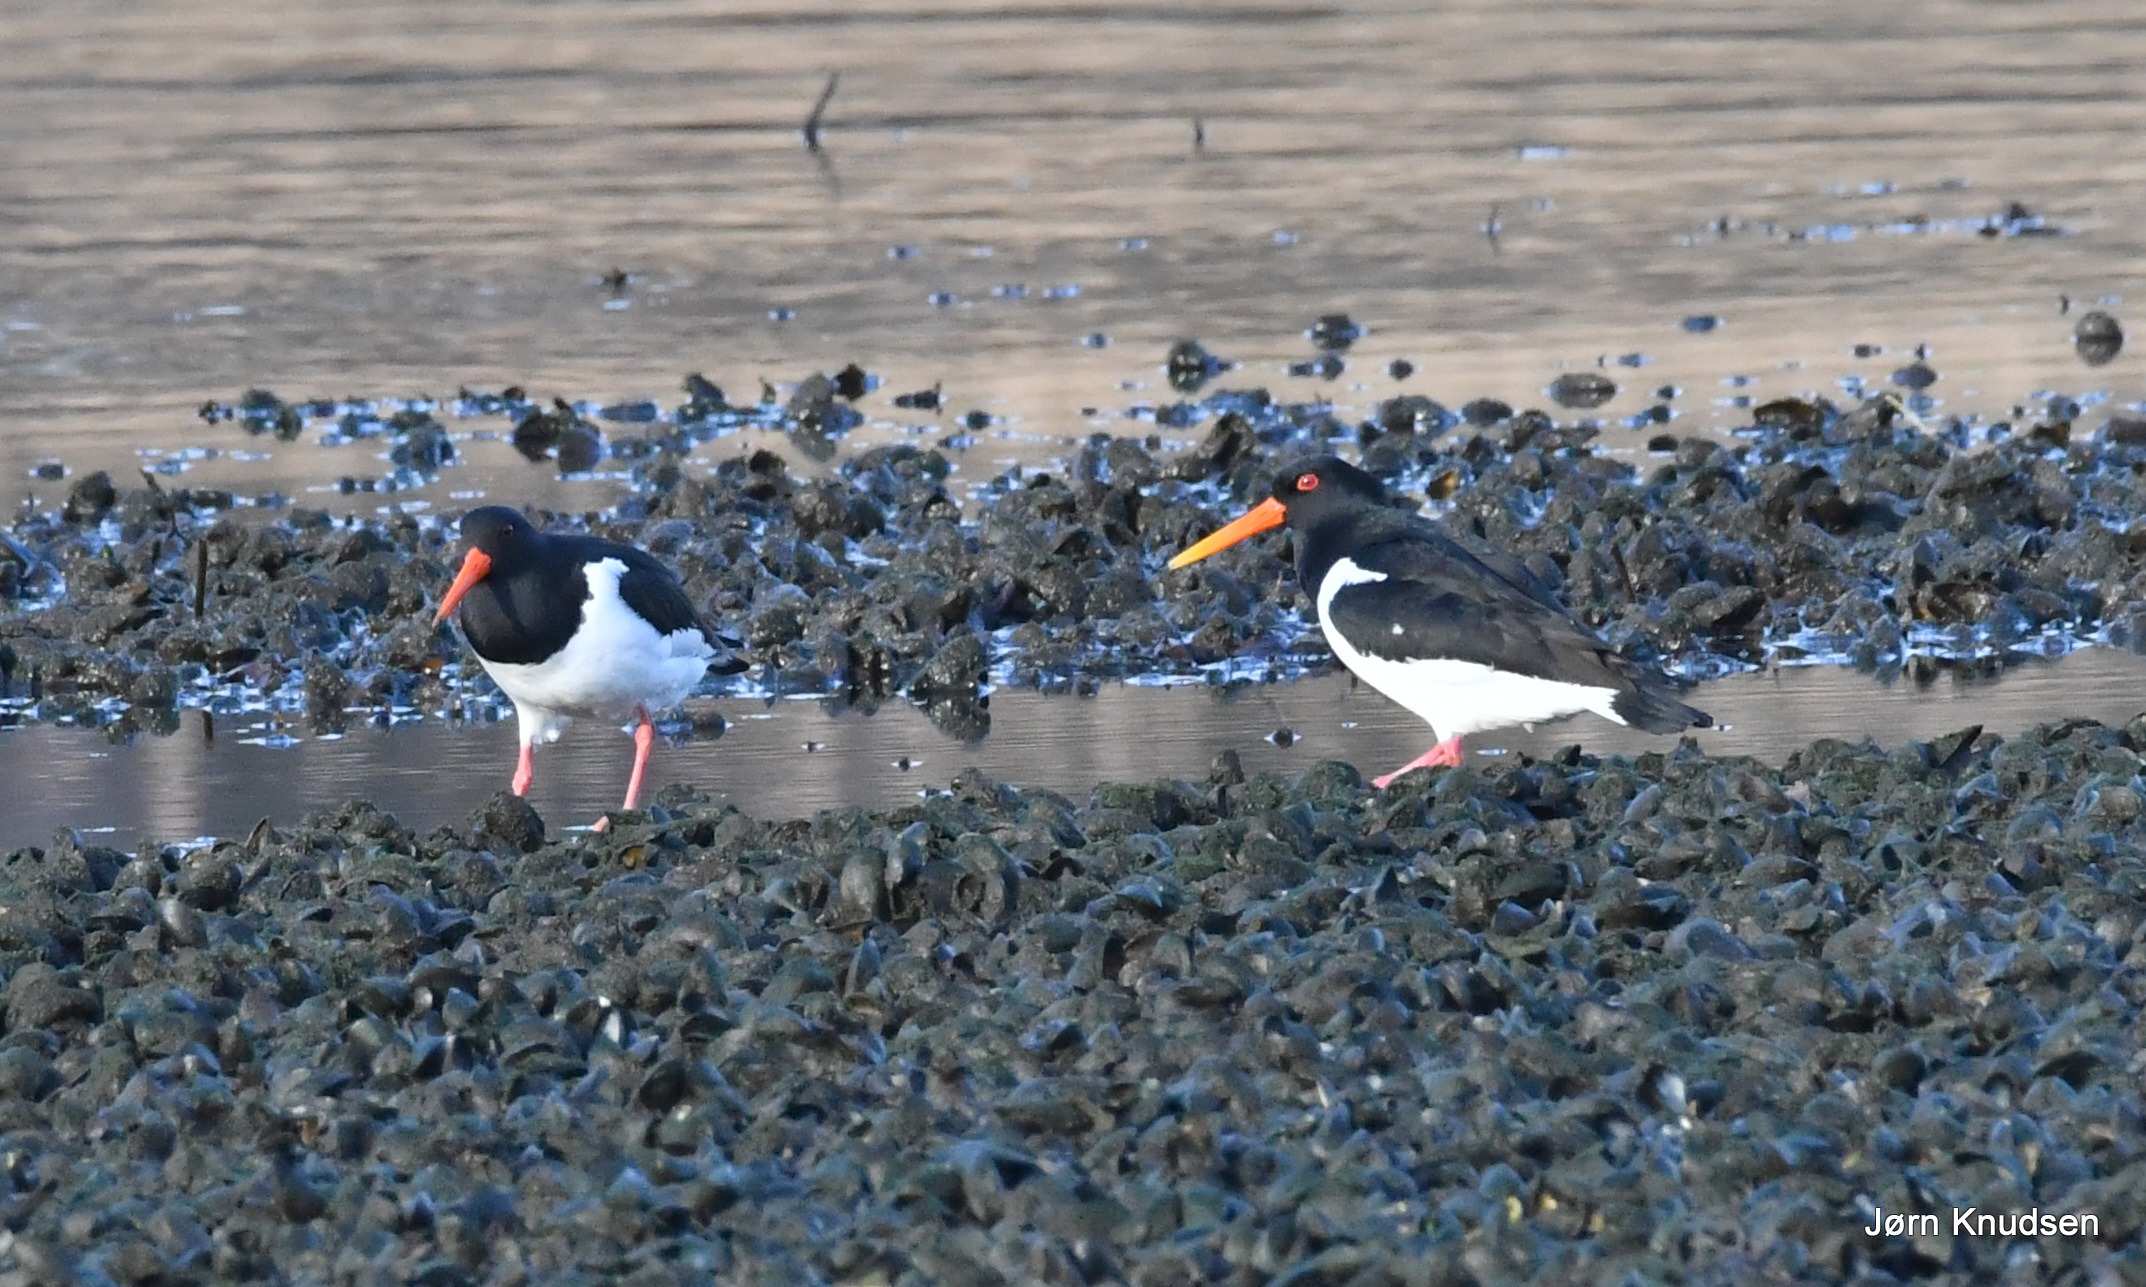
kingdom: Animalia
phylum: Chordata
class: Aves
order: Charadriiformes
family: Haematopodidae
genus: Haematopus
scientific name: Haematopus ostralegus
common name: Strandskade
